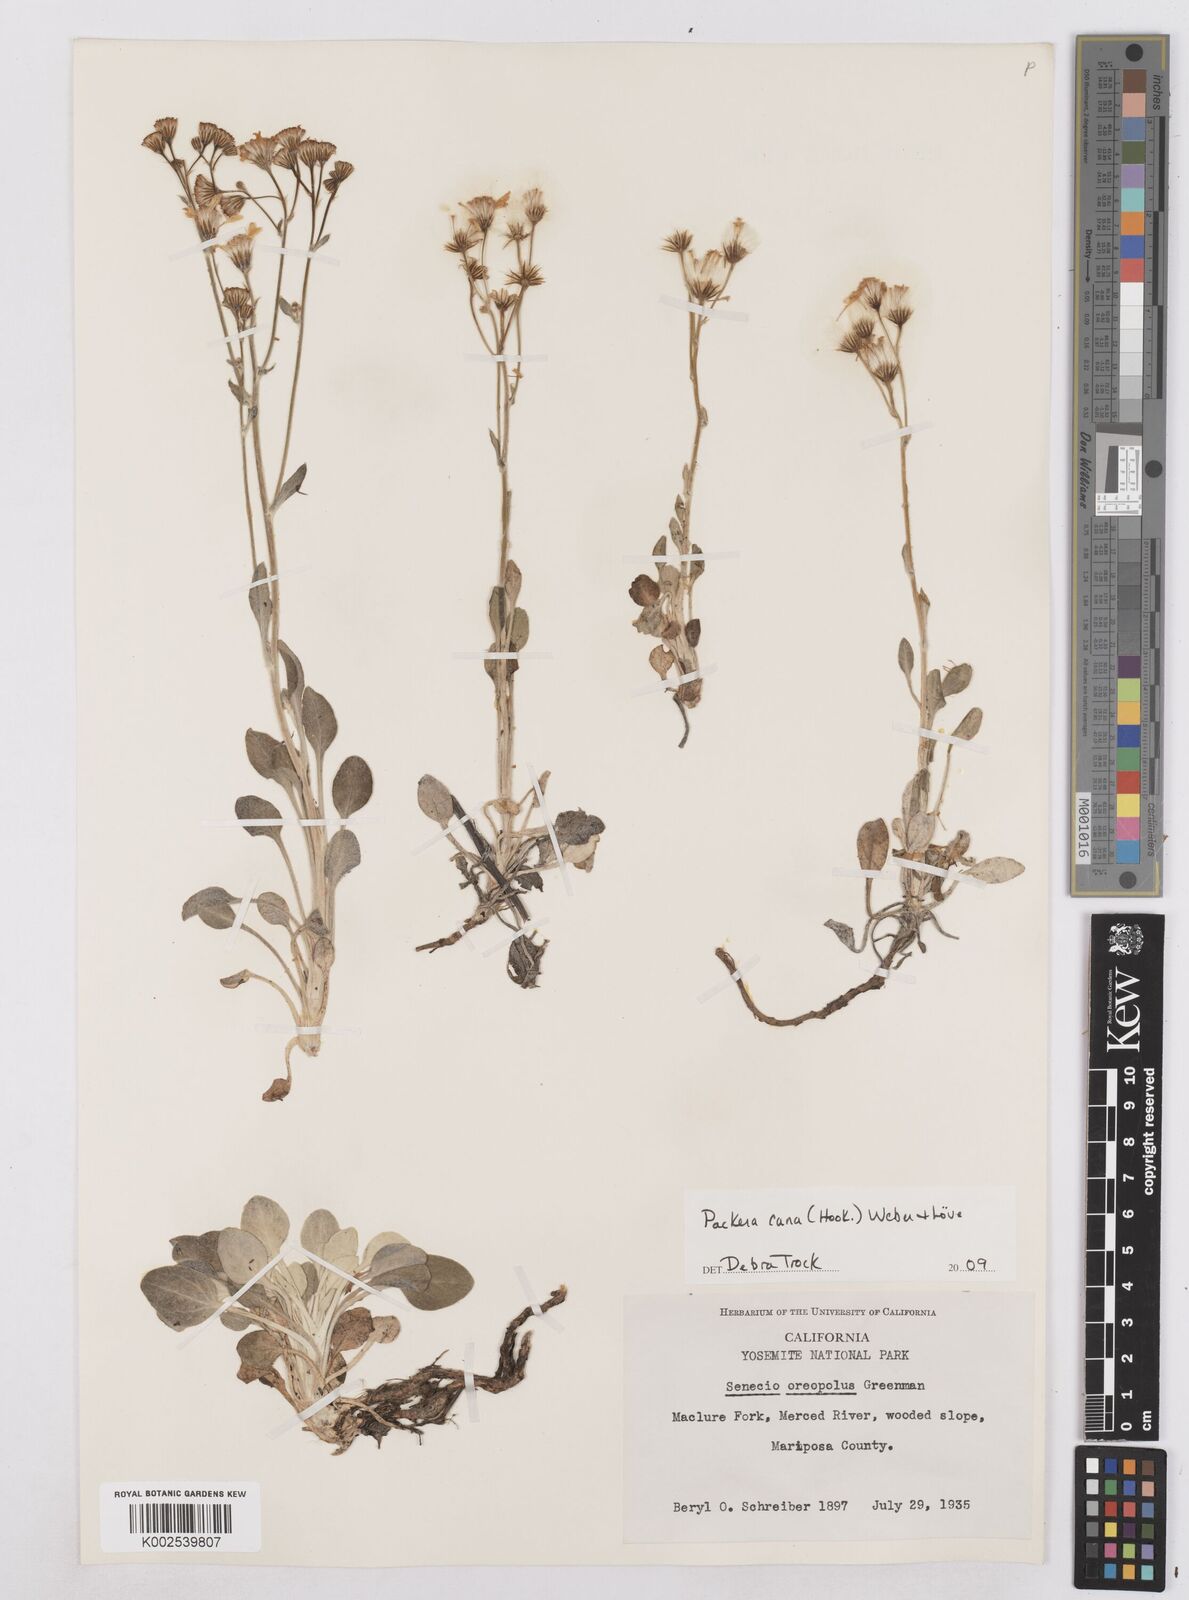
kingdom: Plantae
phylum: Tracheophyta
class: Magnoliopsida
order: Asterales
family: Asteraceae
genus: Packera
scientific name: Packera cana
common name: Woolly groundsel
